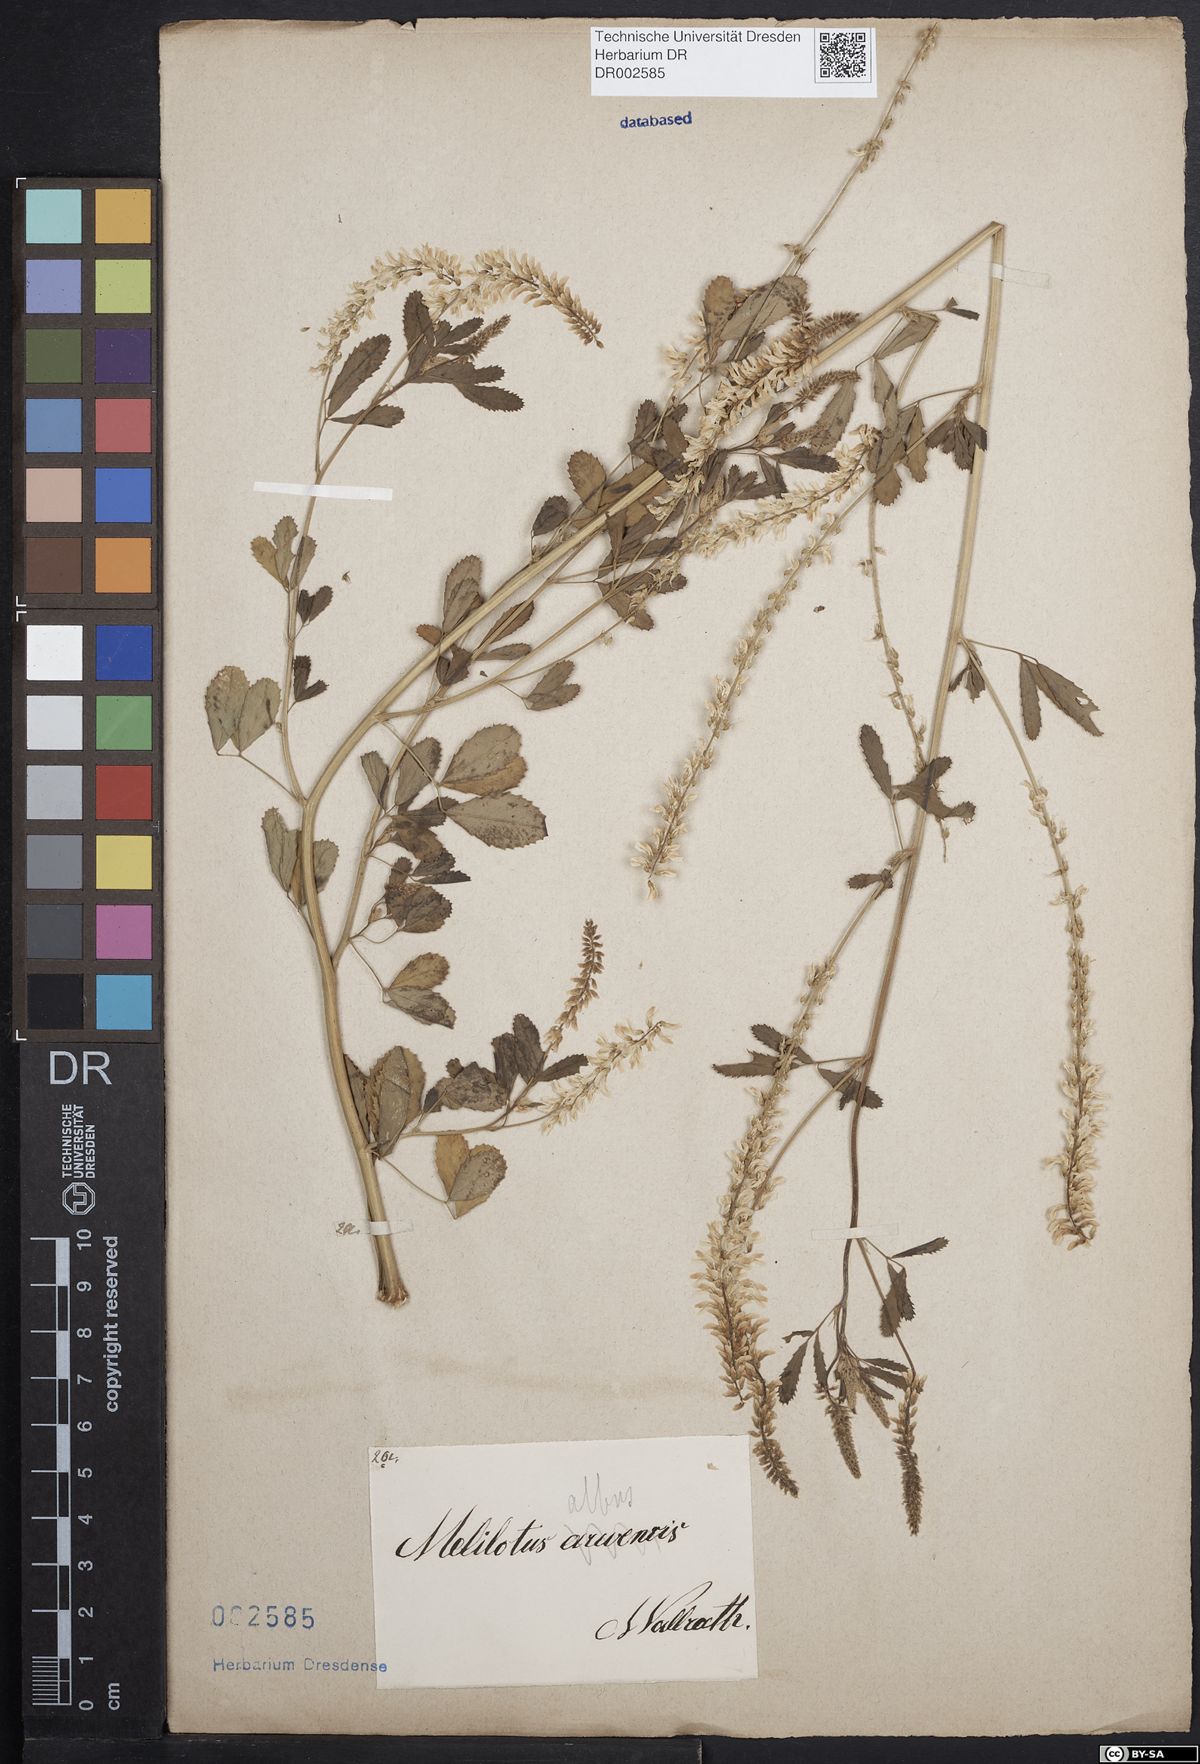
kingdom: Plantae
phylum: Tracheophyta
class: Magnoliopsida
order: Fabales
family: Fabaceae
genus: Melilotus
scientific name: Melilotus albus
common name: White melilot
